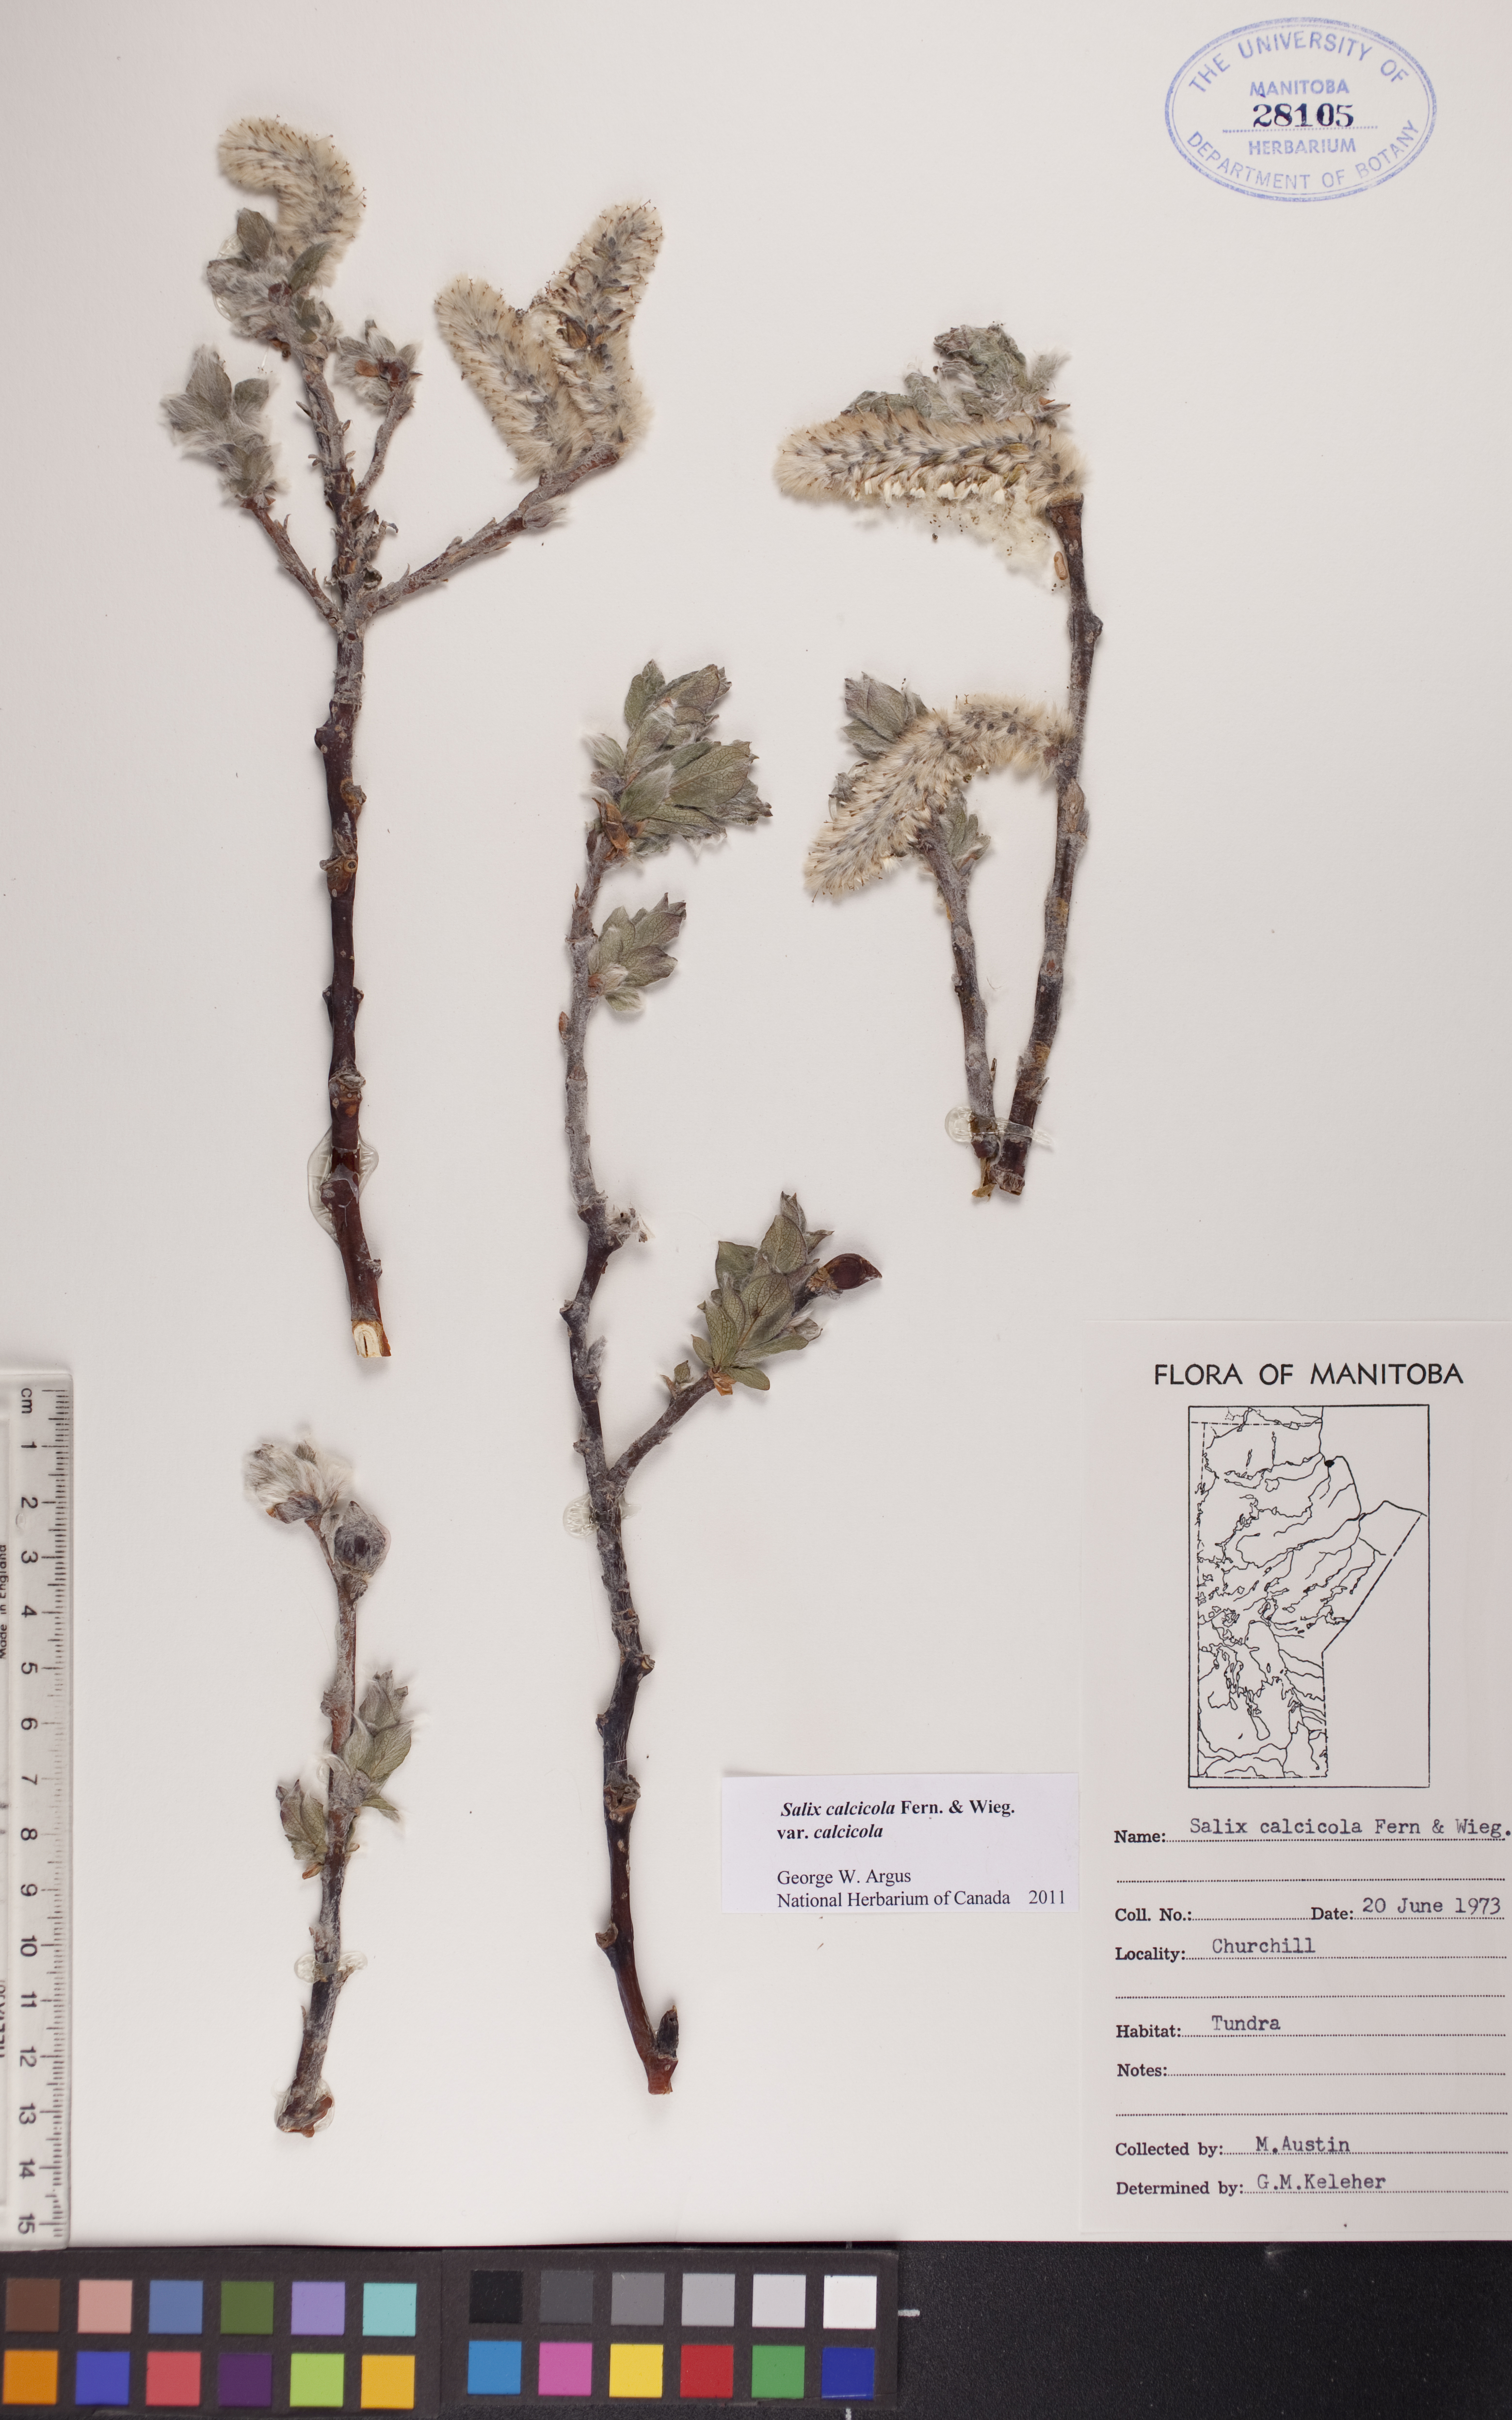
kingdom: Plantae
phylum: Tracheophyta
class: Magnoliopsida
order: Malpighiales
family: Salicaceae
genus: Salix
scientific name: Salix calcicola
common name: Calcareous willow
